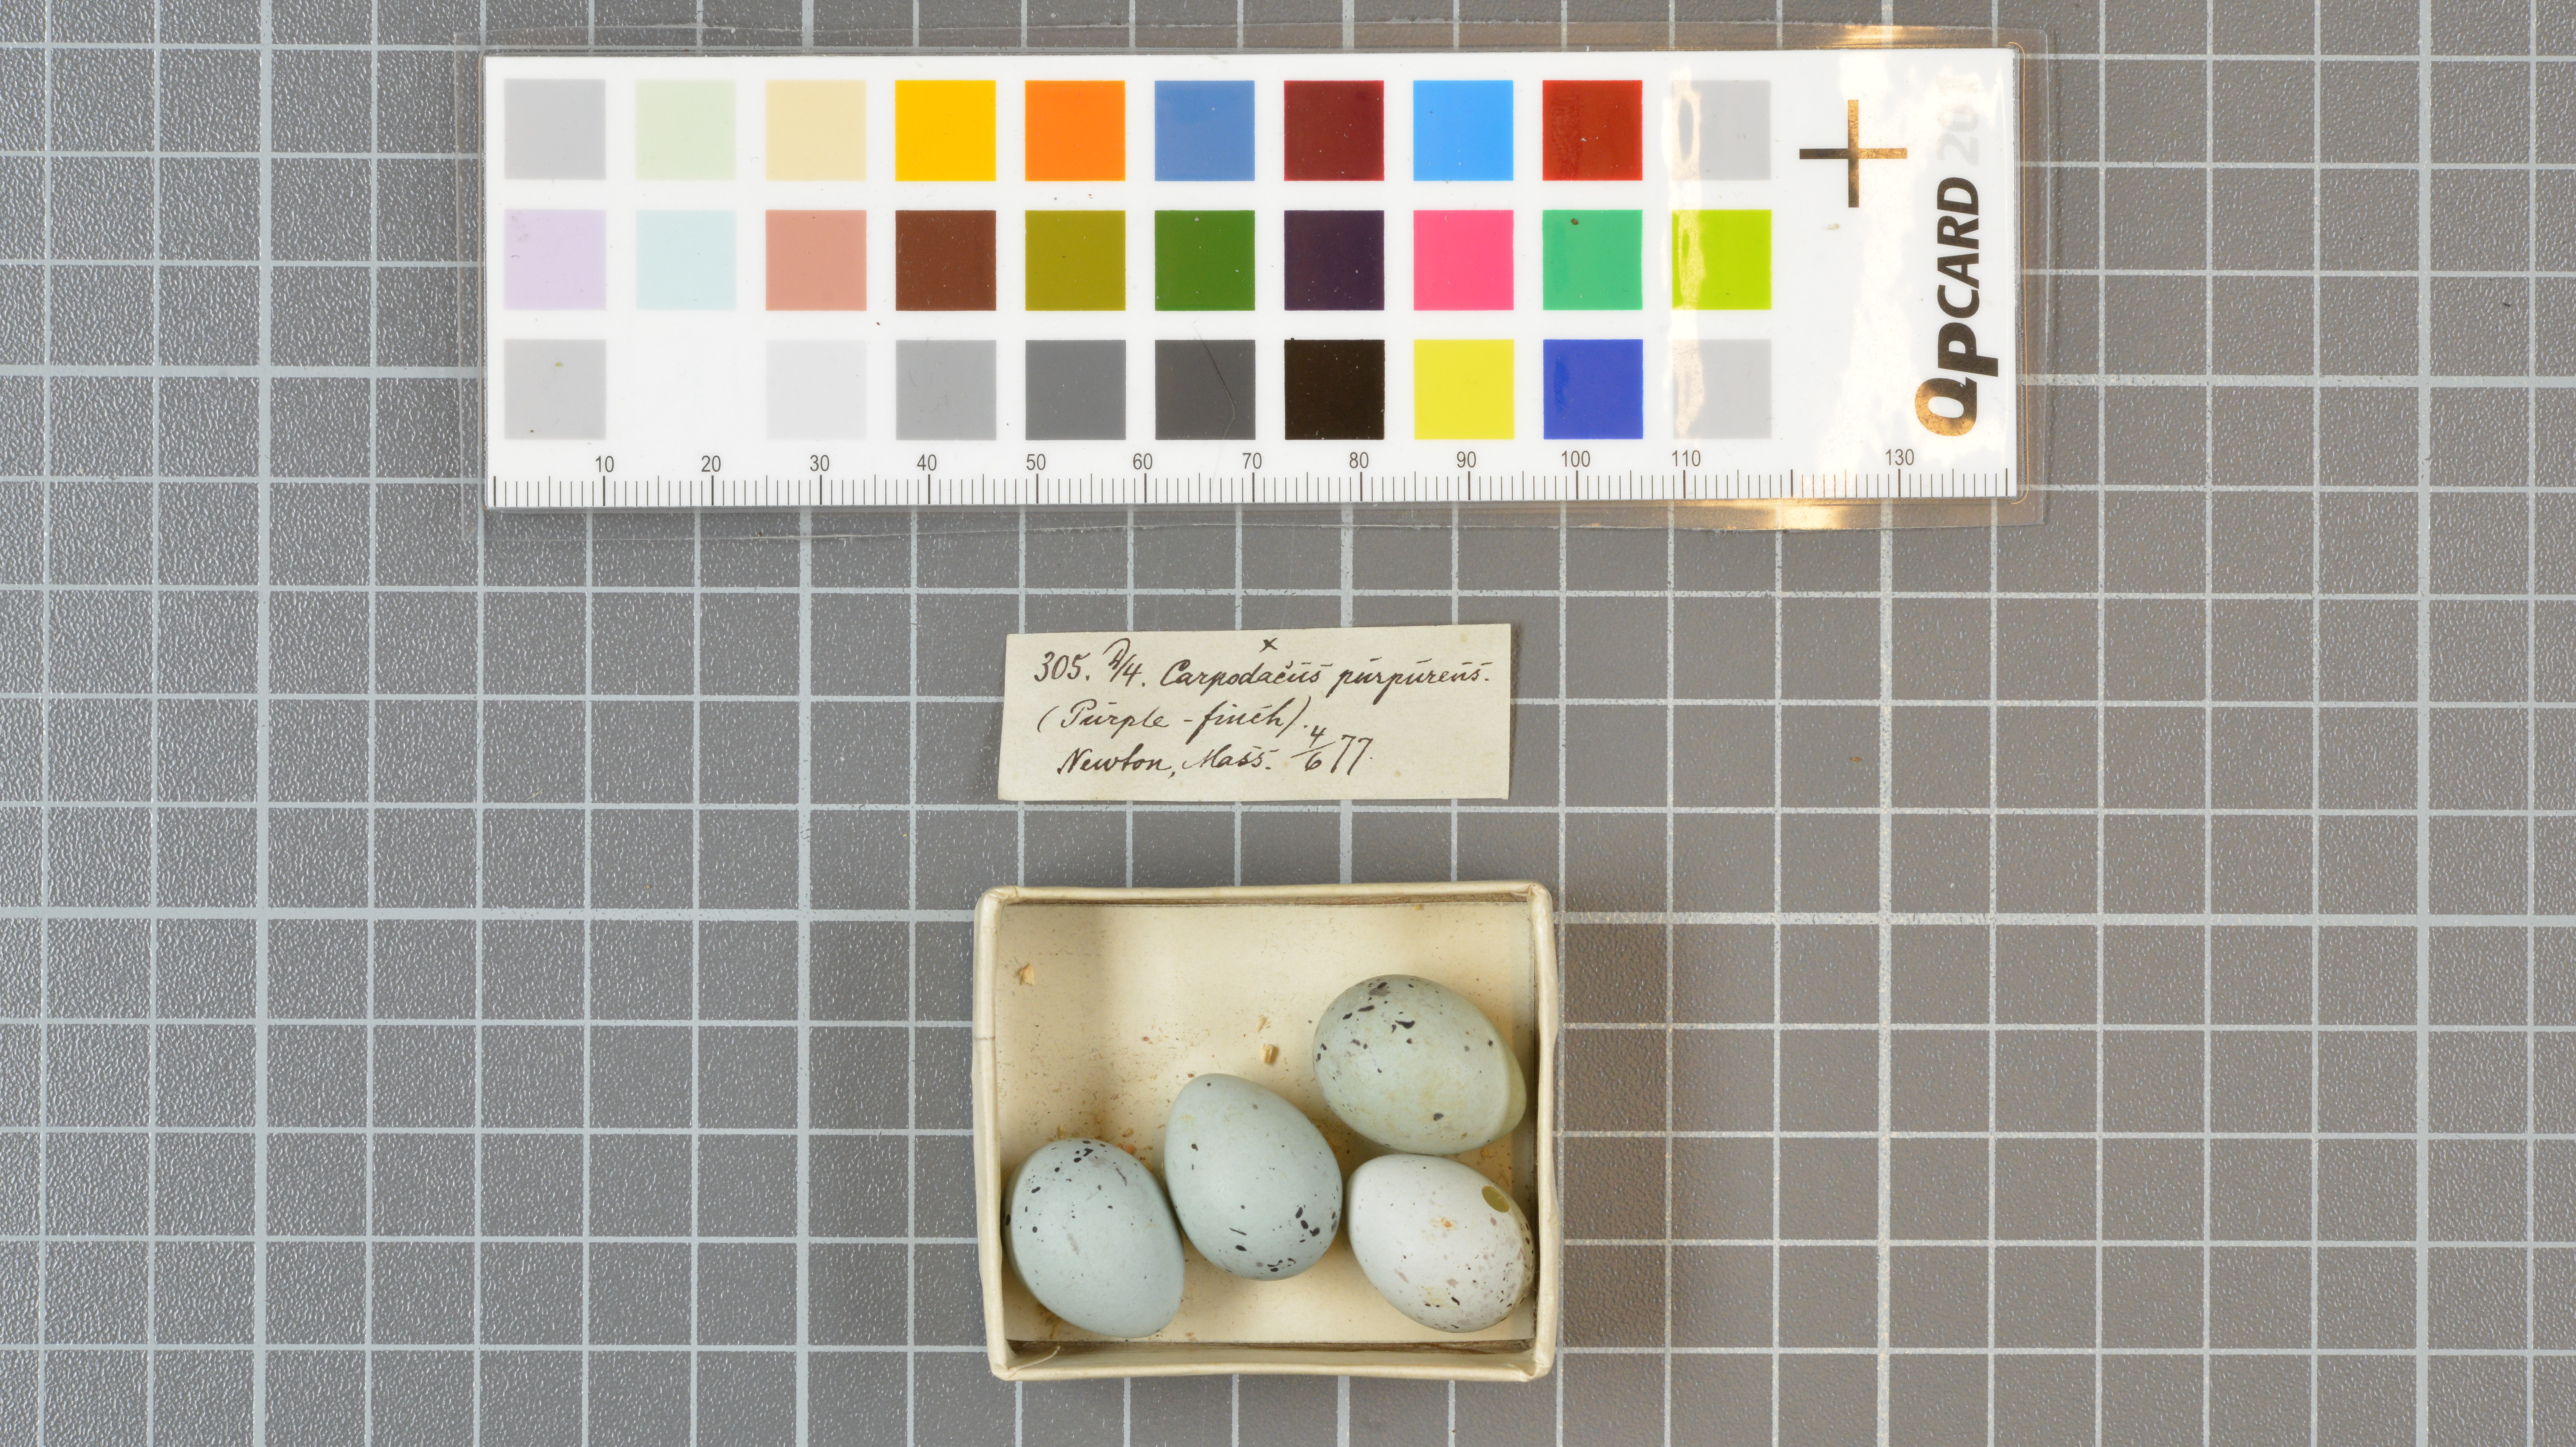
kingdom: Animalia
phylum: Chordata
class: Aves
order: Passeriformes
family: Fringillidae
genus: Haemorhous
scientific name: Haemorhous purpureus
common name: Purple finch
